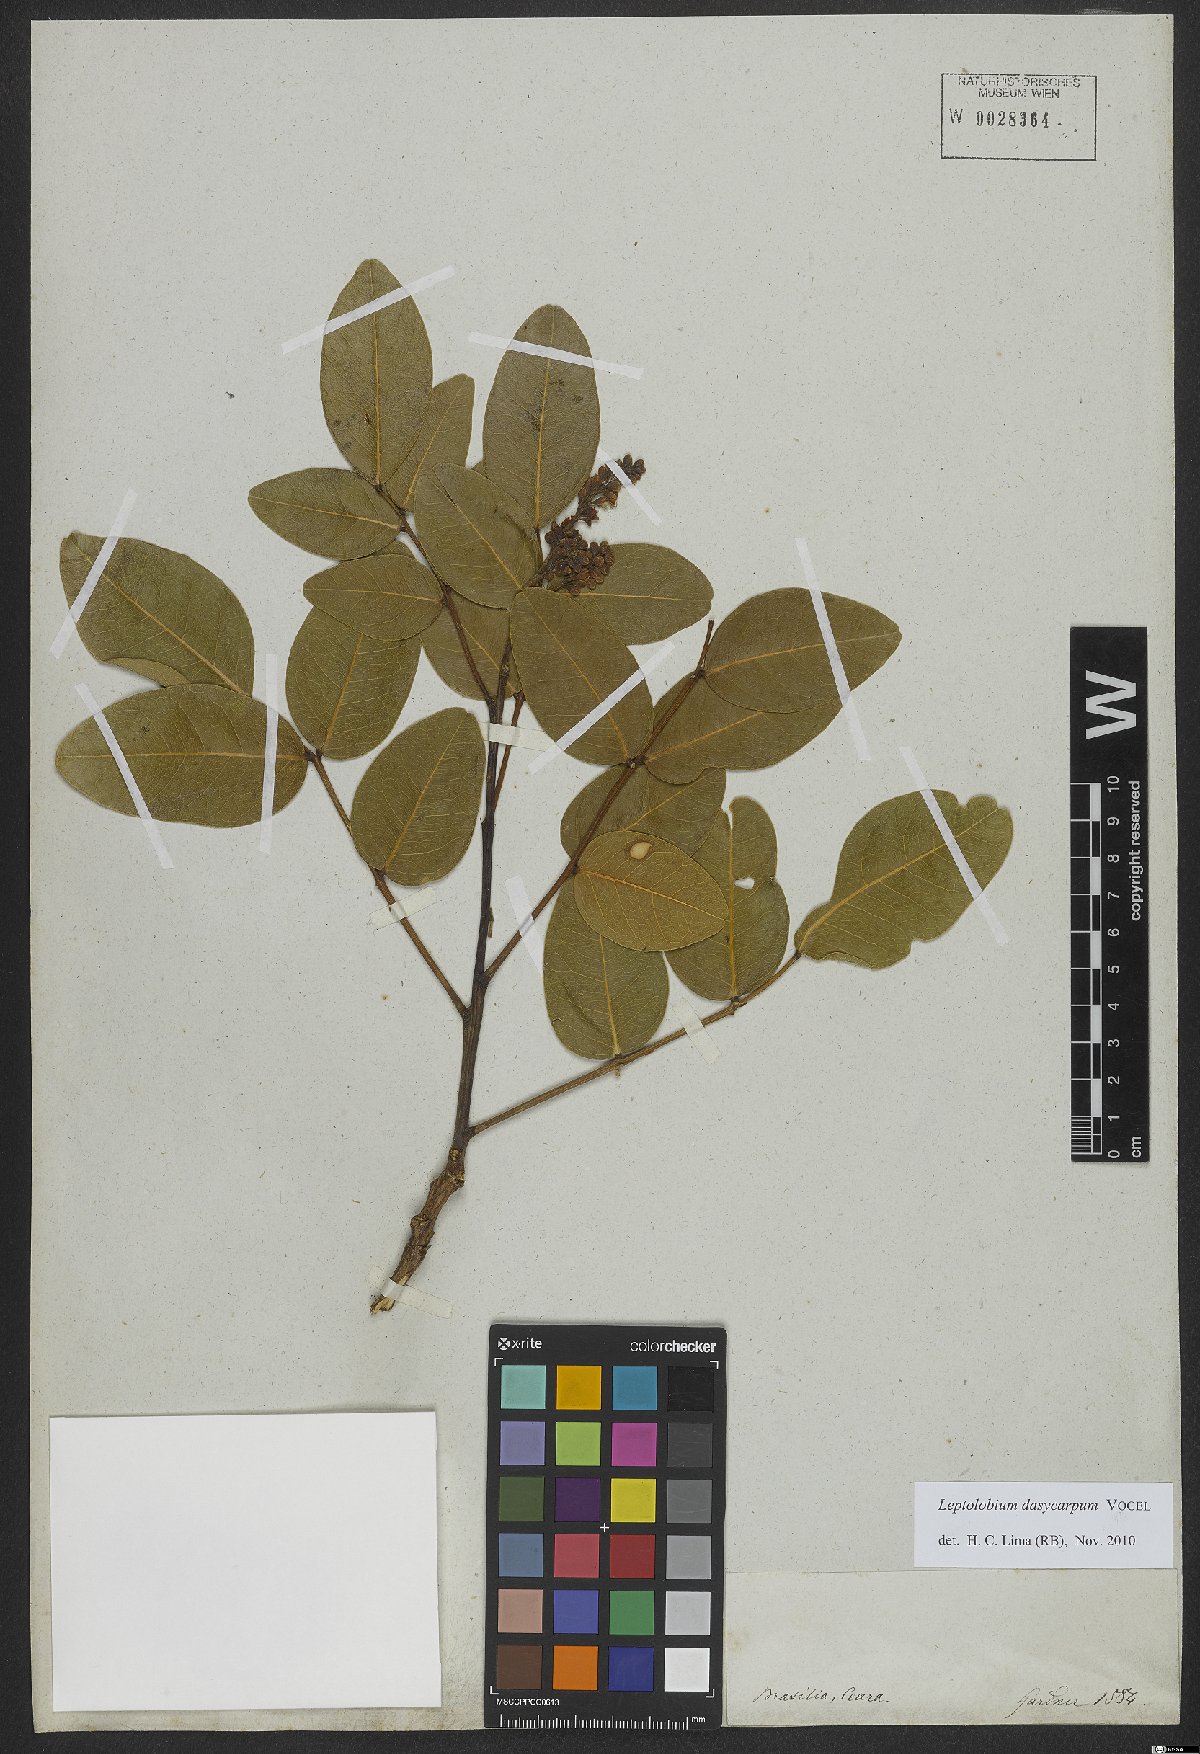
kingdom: Plantae
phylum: Tracheophyta
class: Magnoliopsida
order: Fabales
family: Fabaceae
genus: Leptolobium
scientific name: Leptolobium dasycarpum
